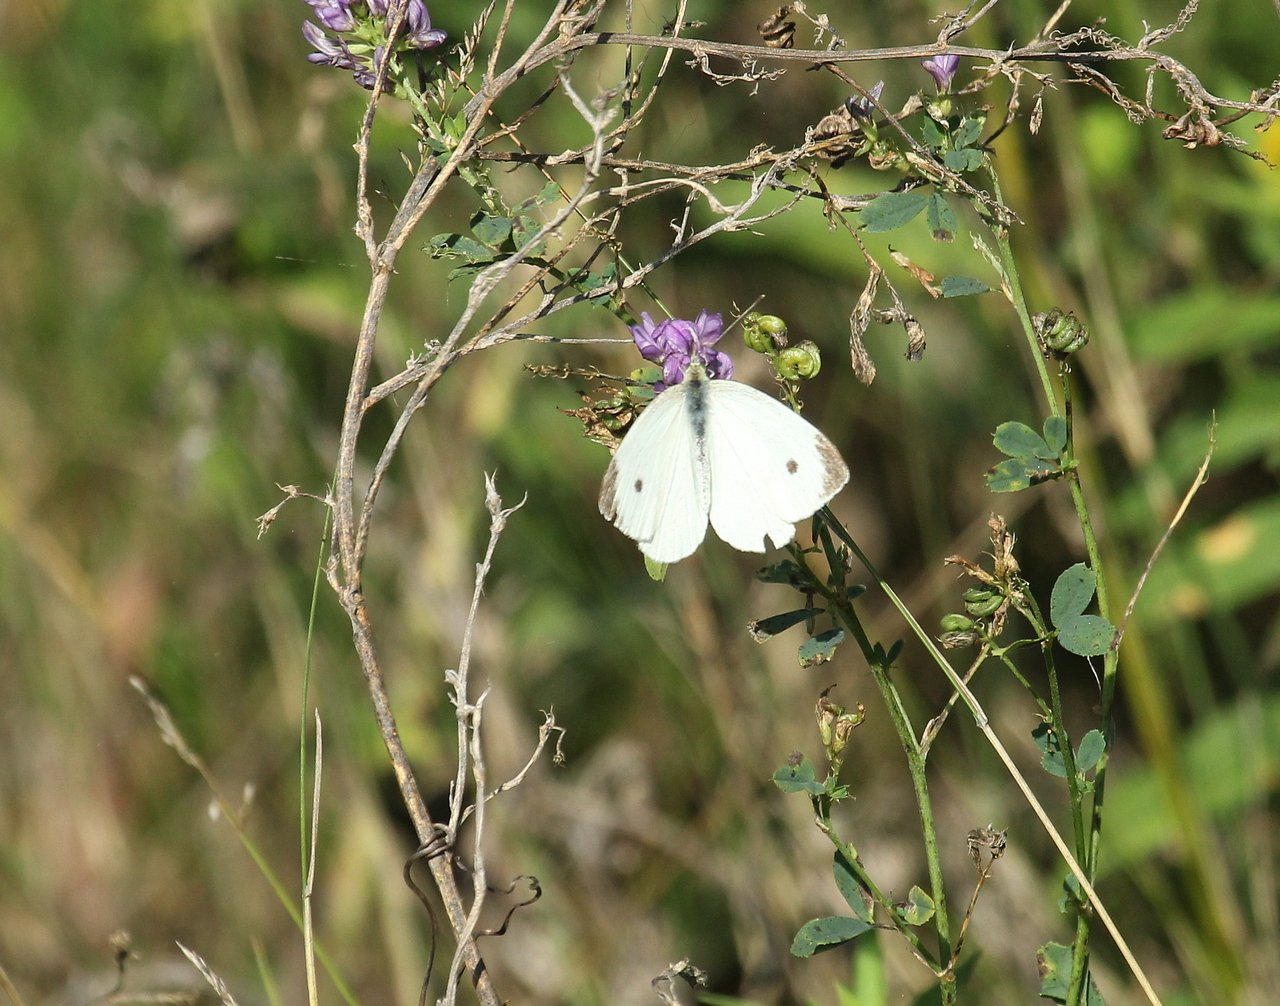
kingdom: Animalia
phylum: Arthropoda
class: Insecta
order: Lepidoptera
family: Pieridae
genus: Pieris
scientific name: Pieris rapae
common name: Cabbage White
